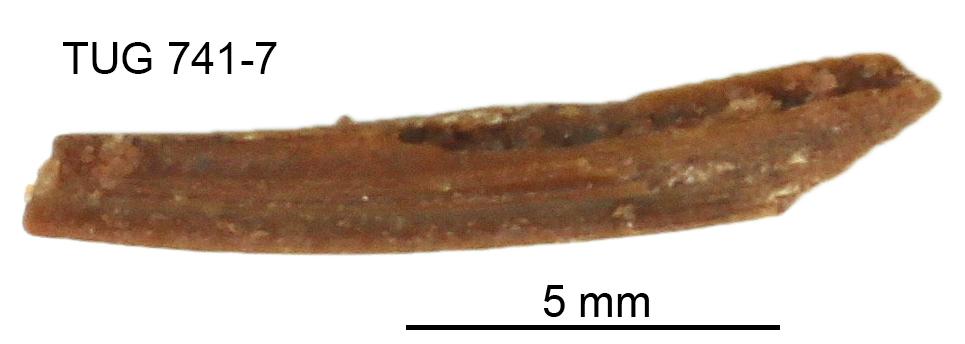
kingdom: Animalia
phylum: Chordata
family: Acanthodidae
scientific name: Acanthodidae
